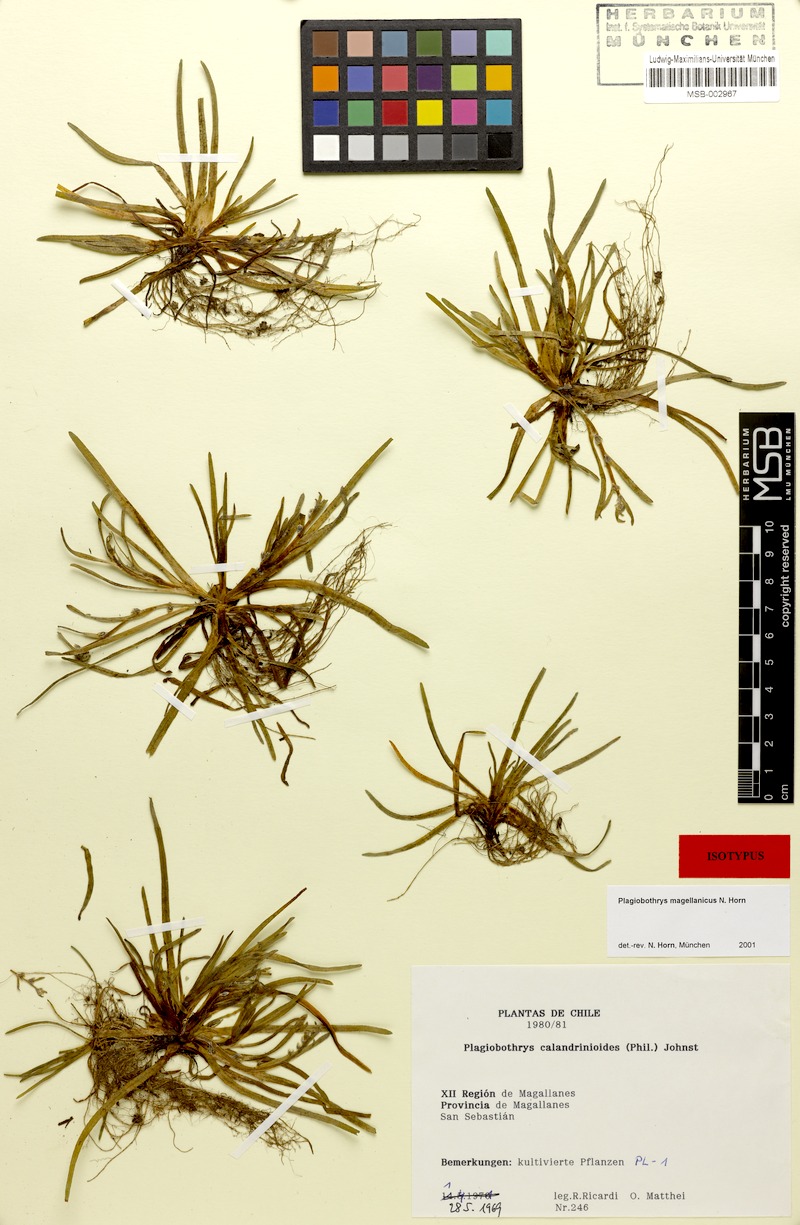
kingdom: Plantae
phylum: Tracheophyta
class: Magnoliopsida
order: Boraginales
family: Boraginaceae
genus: Plagiobothrys
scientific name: Plagiobothrys
